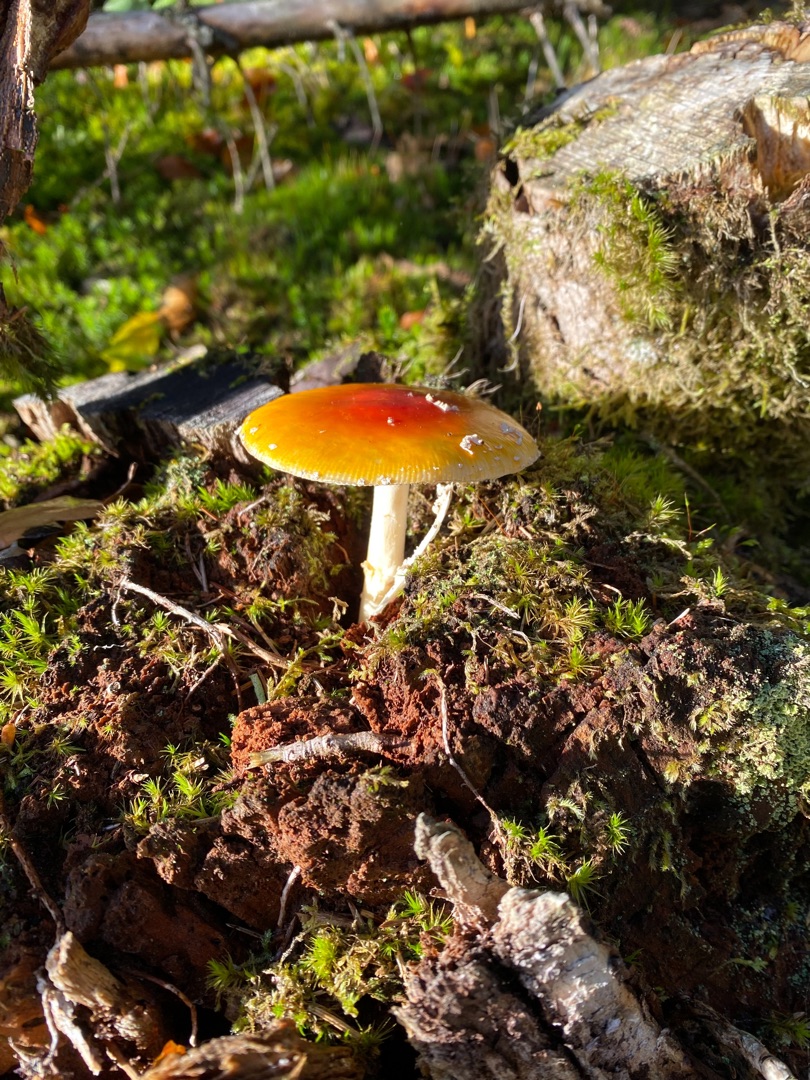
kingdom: Fungi
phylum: Basidiomycota
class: Agaricomycetes
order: Agaricales
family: Amanitaceae
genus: Amanita
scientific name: Amanita muscaria
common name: Rød fluesvamp
